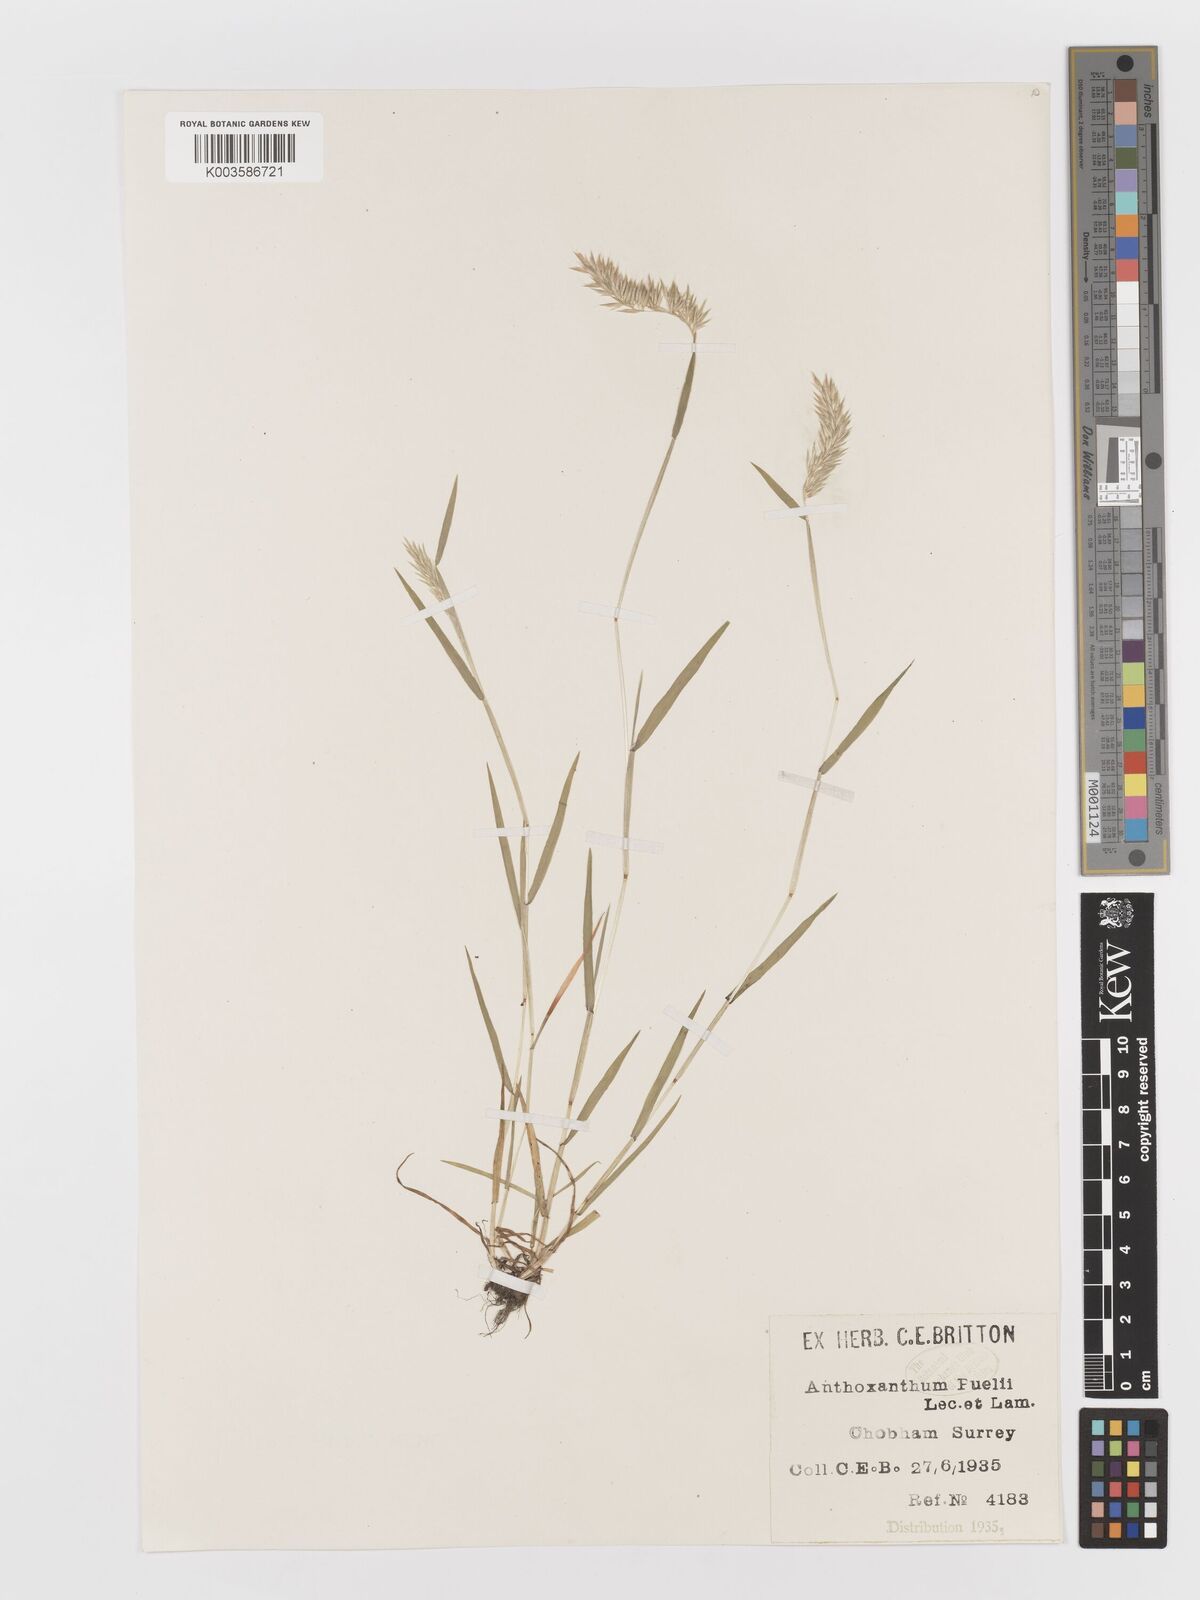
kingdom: Plantae
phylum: Tracheophyta
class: Liliopsida
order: Poales
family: Poaceae
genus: Anthoxanthum
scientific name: Anthoxanthum aristatum
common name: Annual vernal-grass
